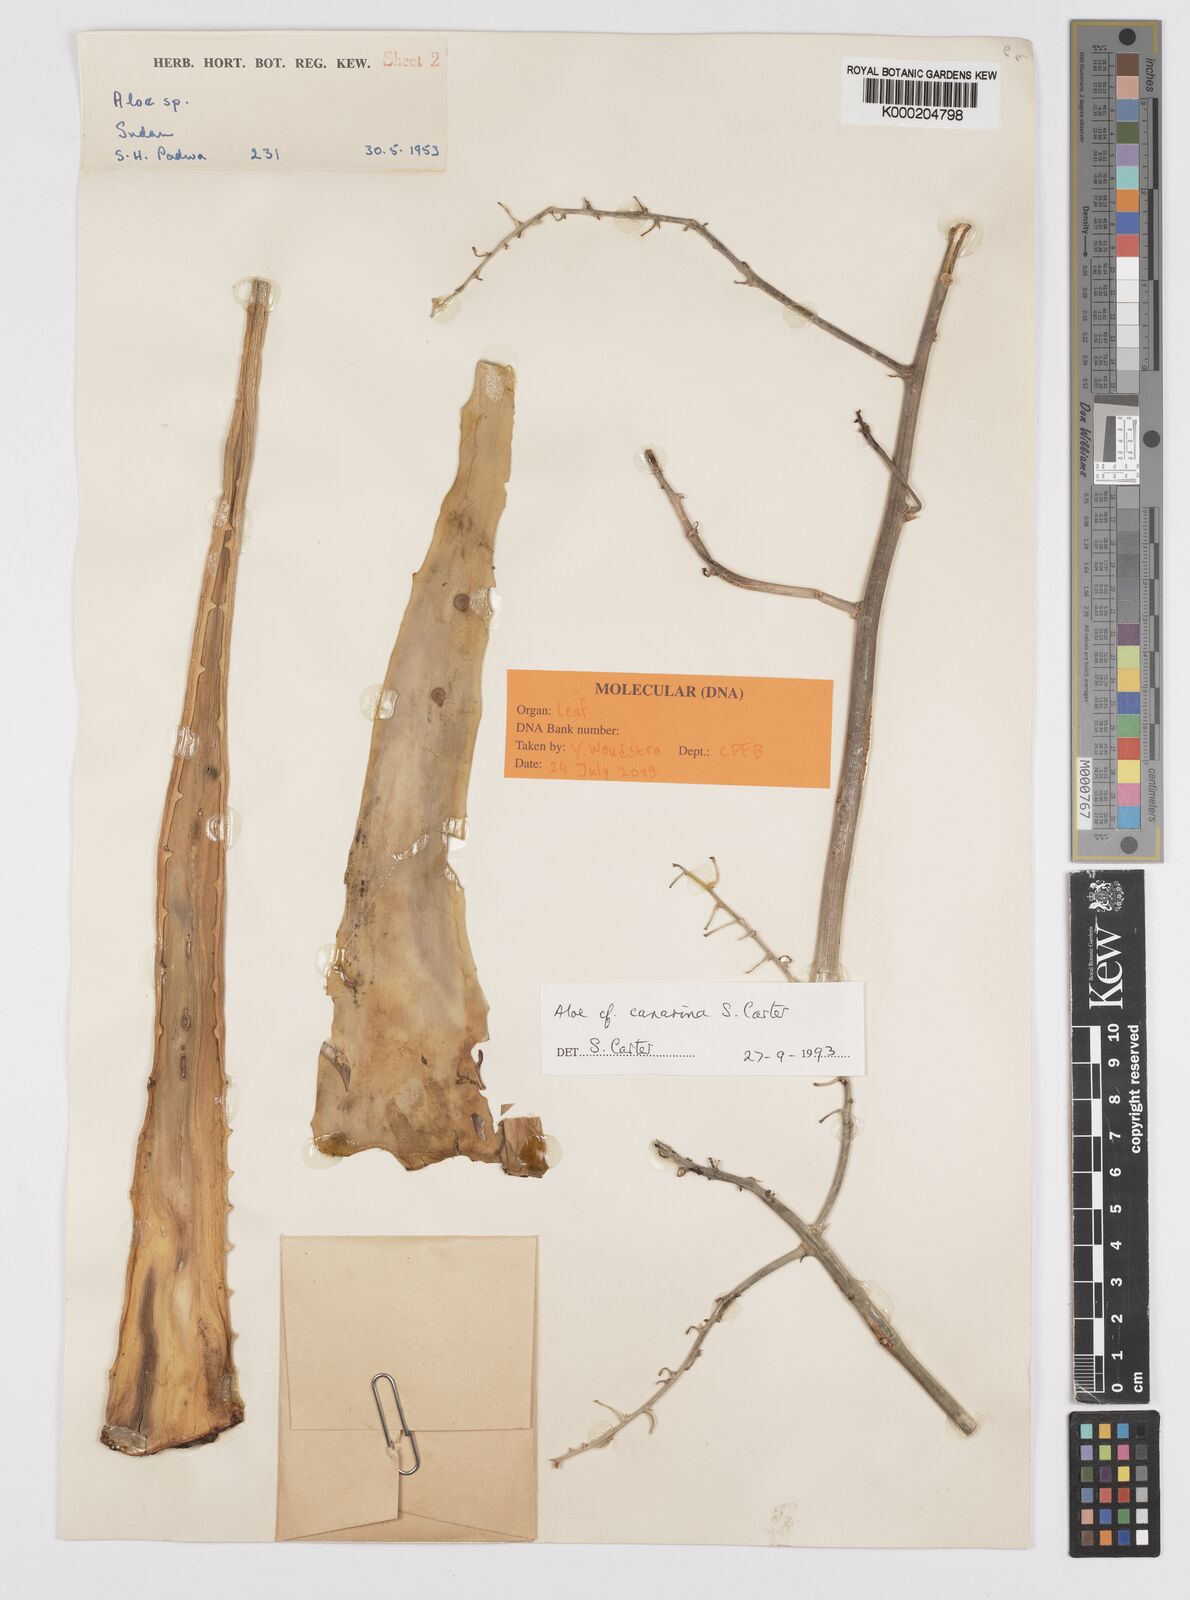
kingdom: Plantae
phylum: Tracheophyta
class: Liliopsida
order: Asparagales
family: Asphodelaceae
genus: Aloe
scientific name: Aloe canarina
